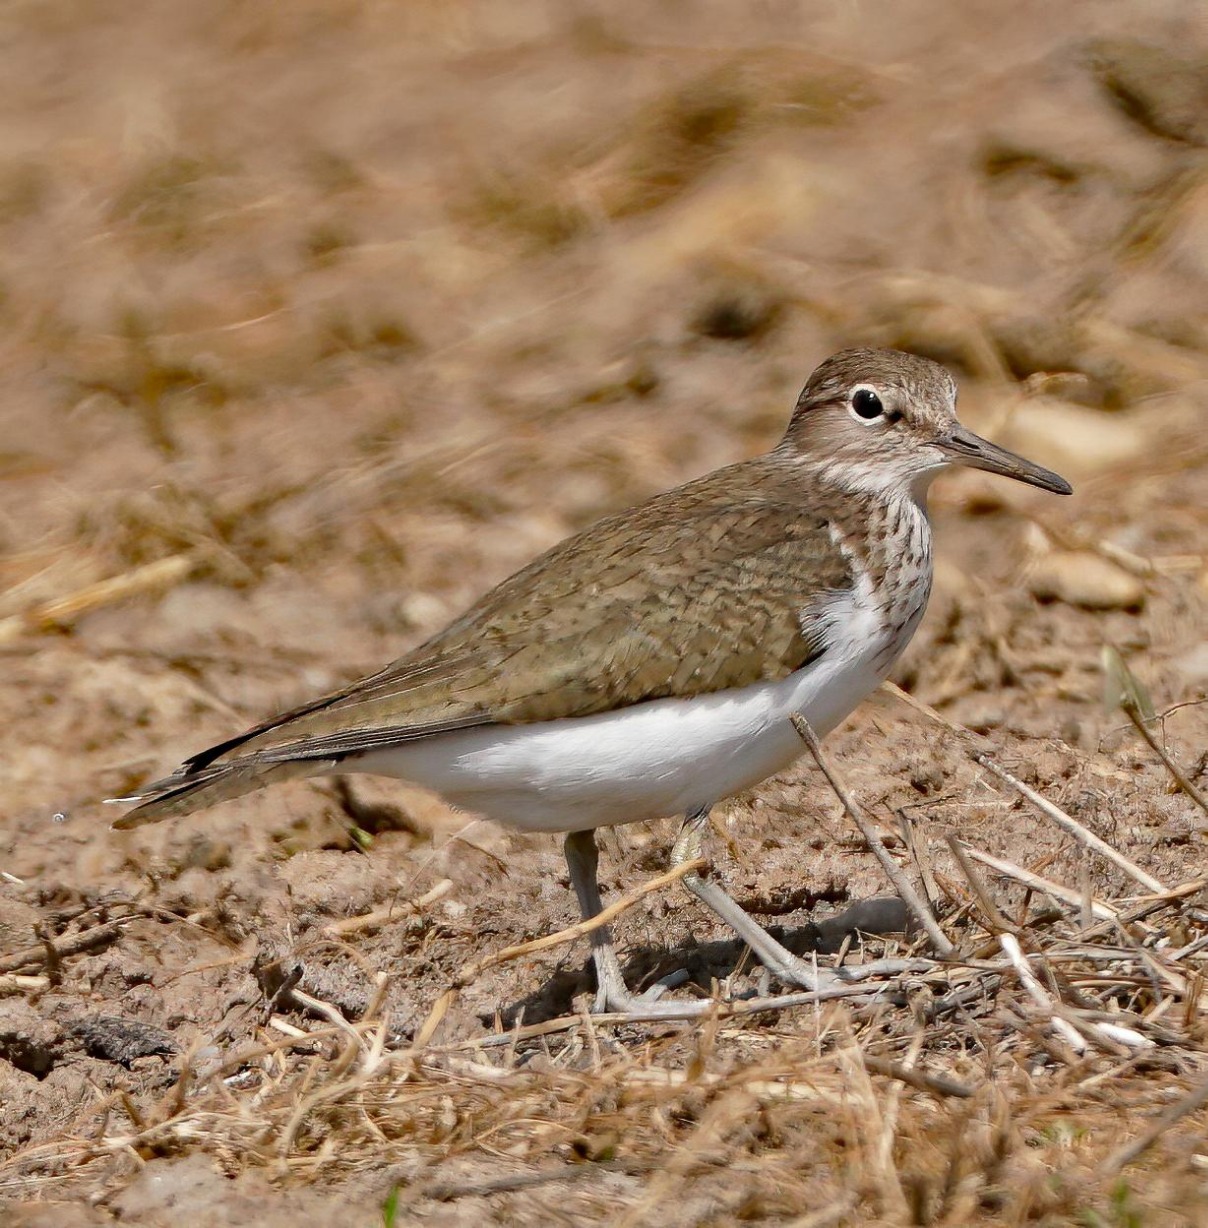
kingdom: Animalia
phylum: Chordata
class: Aves
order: Charadriiformes
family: Scolopacidae
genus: Actitis
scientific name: Actitis hypoleucos
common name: Mudderklire
